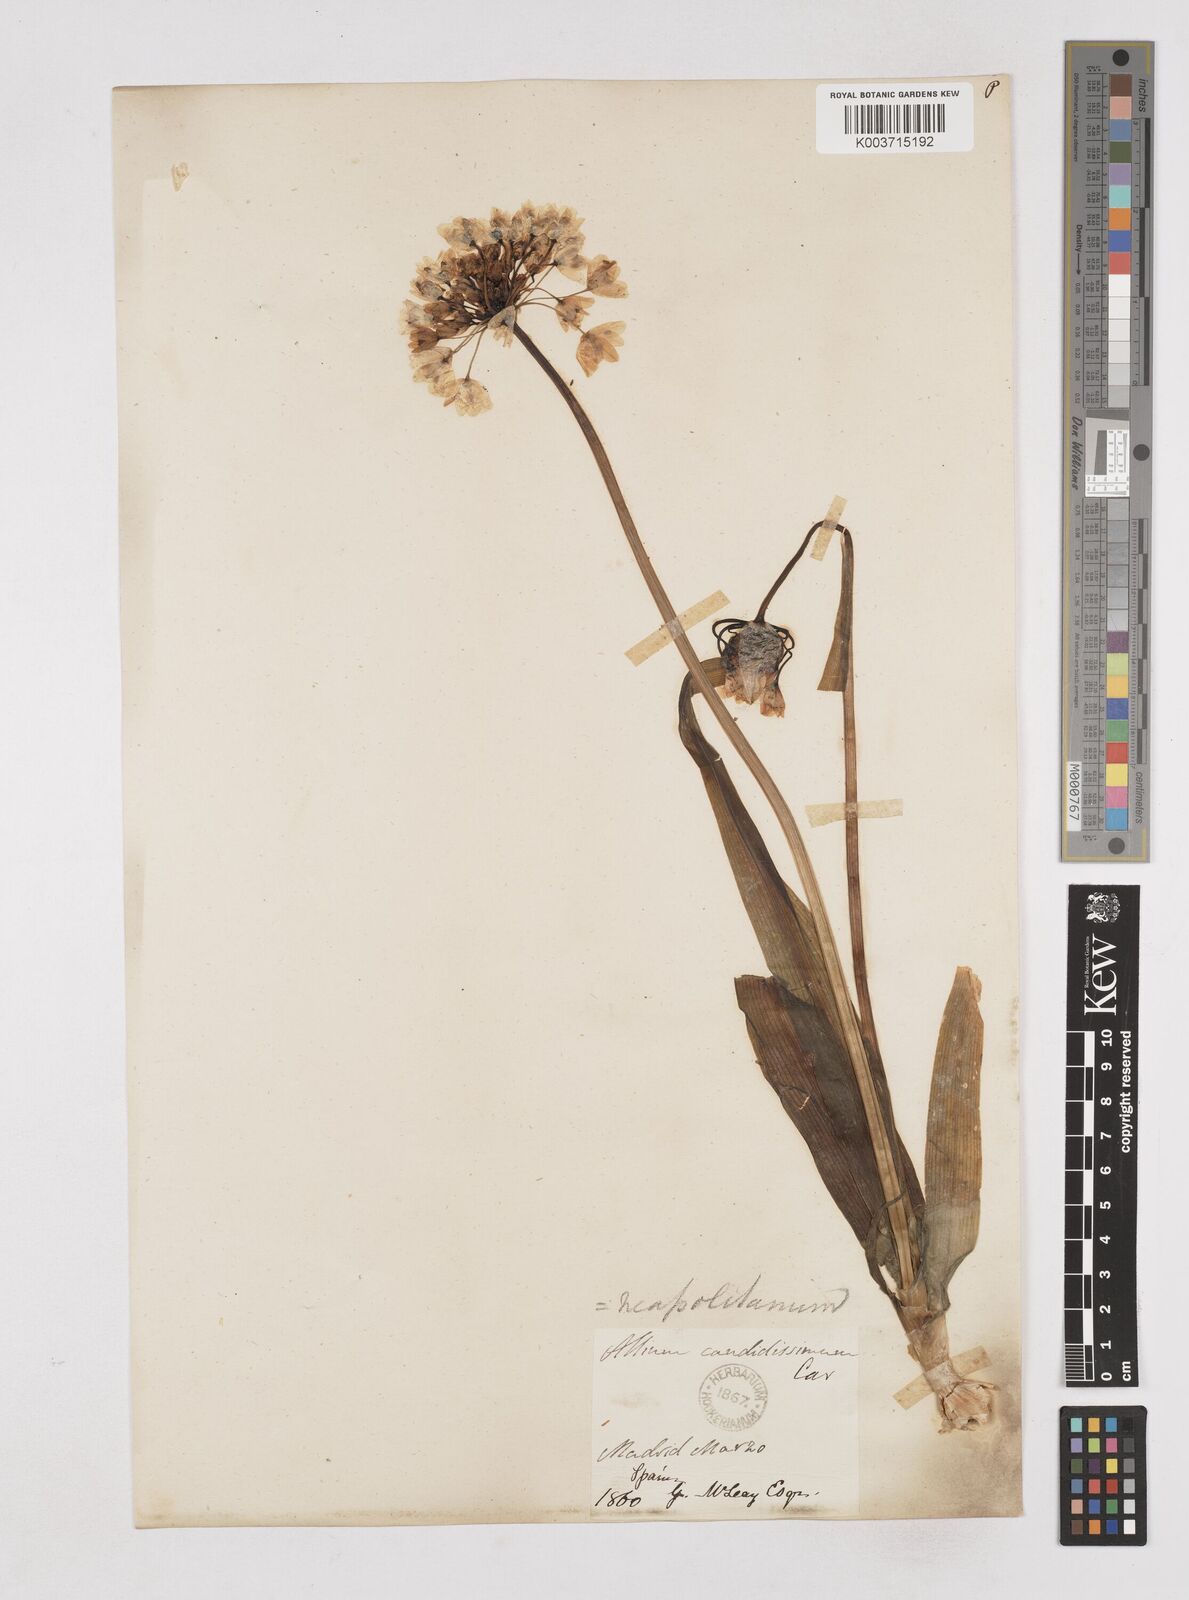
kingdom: Plantae
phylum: Tracheophyta
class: Liliopsida
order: Asparagales
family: Amaryllidaceae
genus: Allium
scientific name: Allium neapolitanum
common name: Neapolitan garlic
